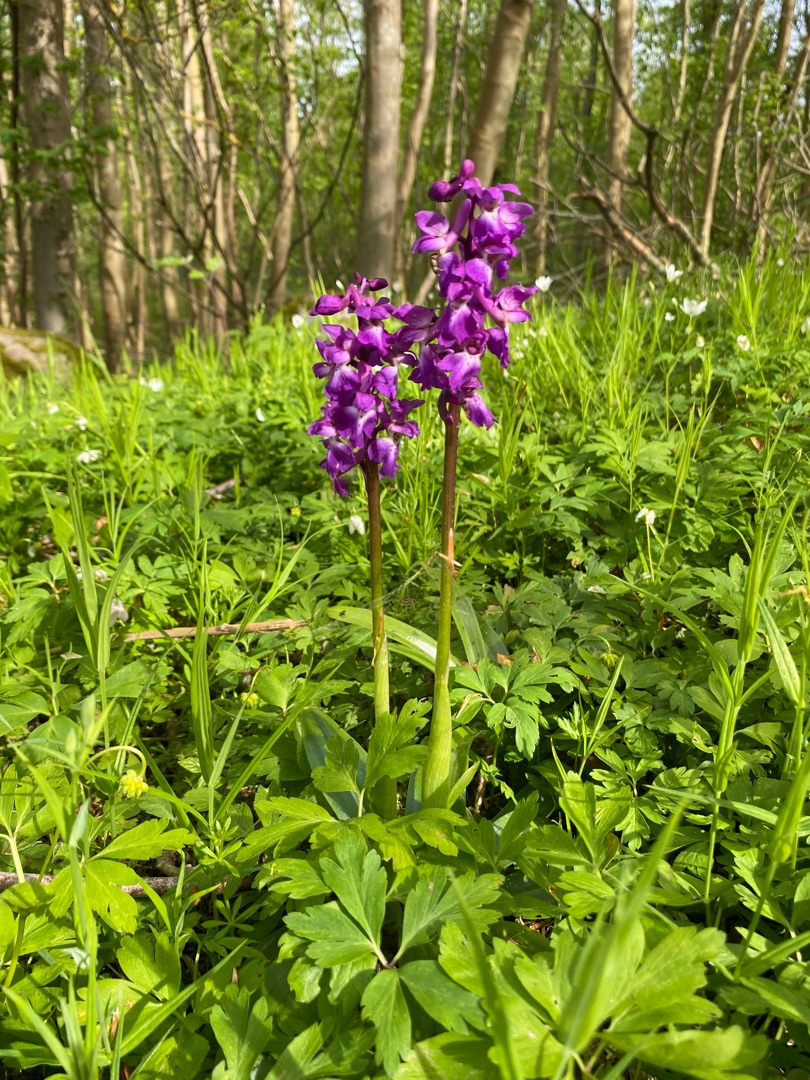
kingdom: Plantae
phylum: Tracheophyta
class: Liliopsida
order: Asparagales
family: Orchidaceae
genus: Orchis
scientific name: Orchis mascula
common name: Tyndakset gøgeurt
